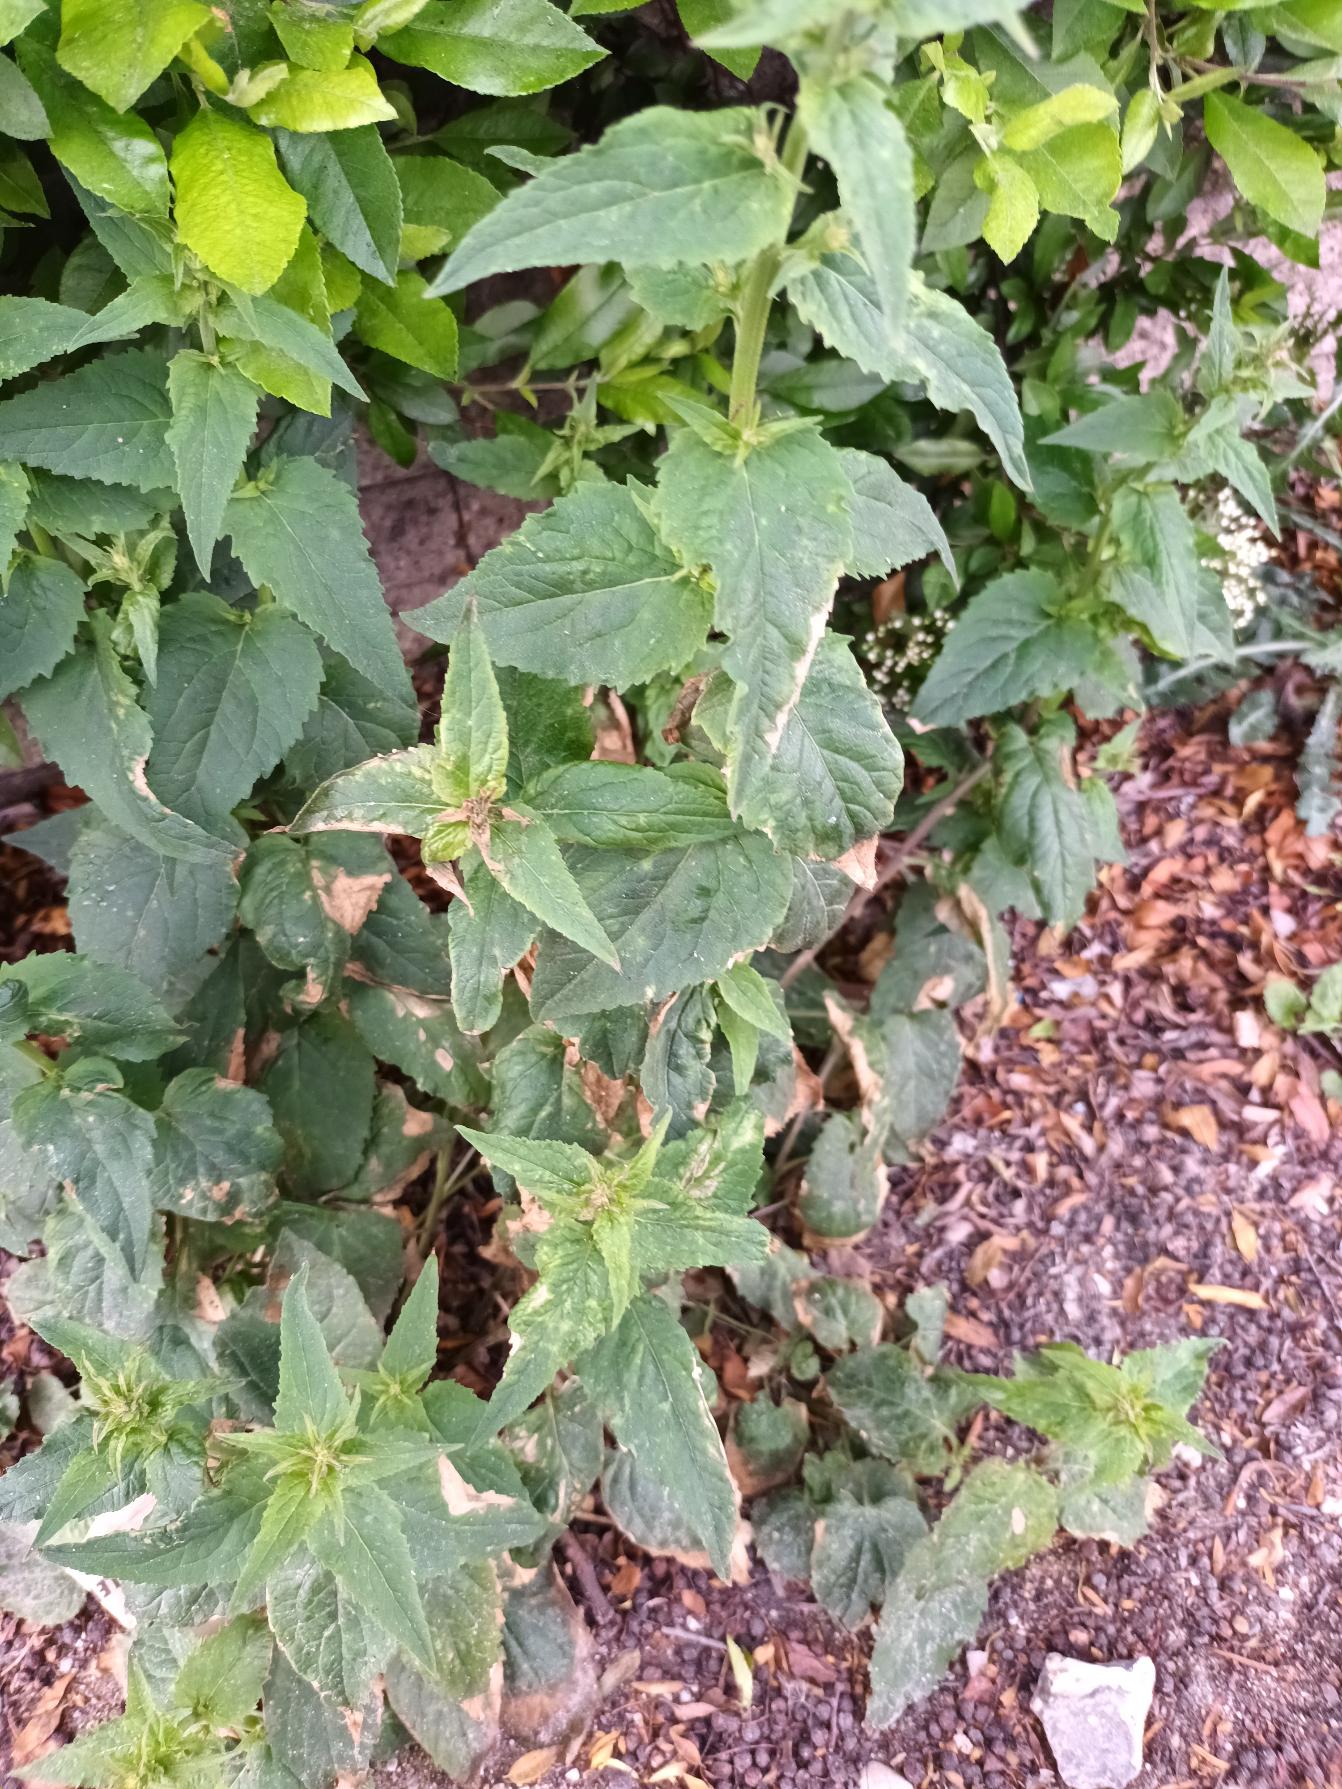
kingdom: Plantae
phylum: Tracheophyta
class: Magnoliopsida
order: Asterales
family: Campanulaceae
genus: Campanula
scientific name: Campanula rapunculoides
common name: Ensidig klokke
